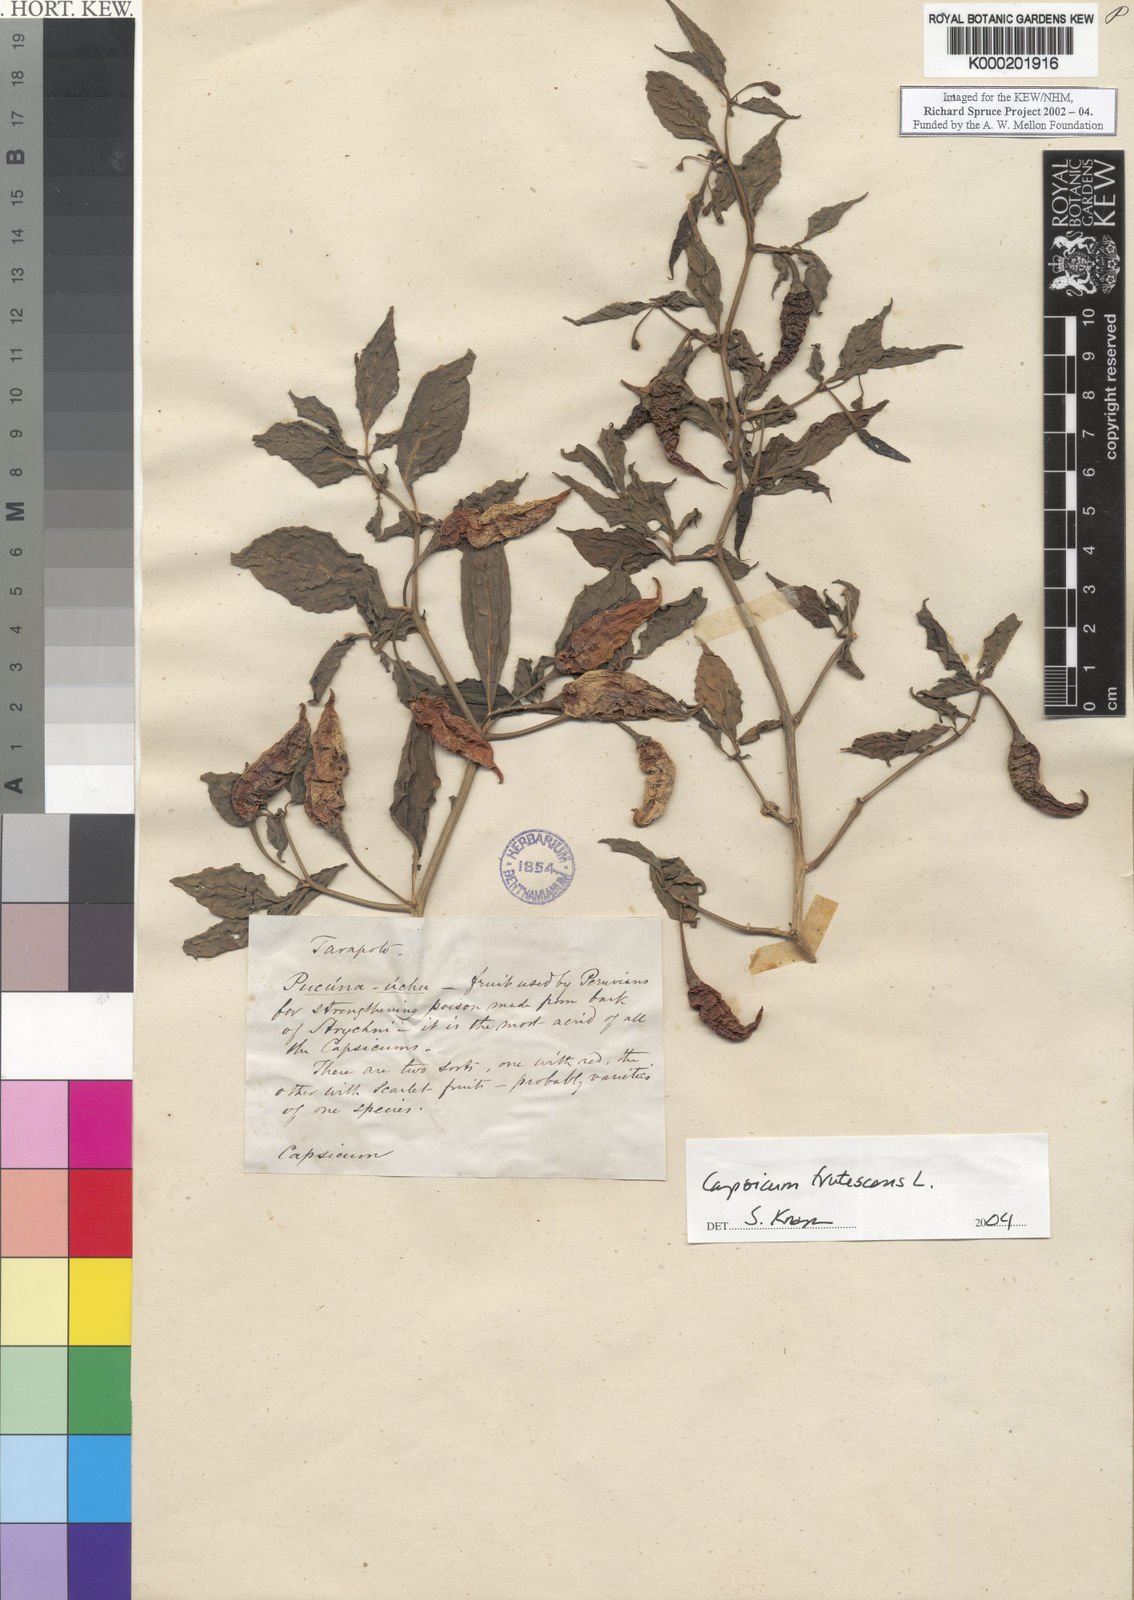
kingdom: Plantae
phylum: Tracheophyta
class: Magnoliopsida
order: Solanales
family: Solanaceae
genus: Capsicum
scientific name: Capsicum frutescens
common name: Bird pepper
